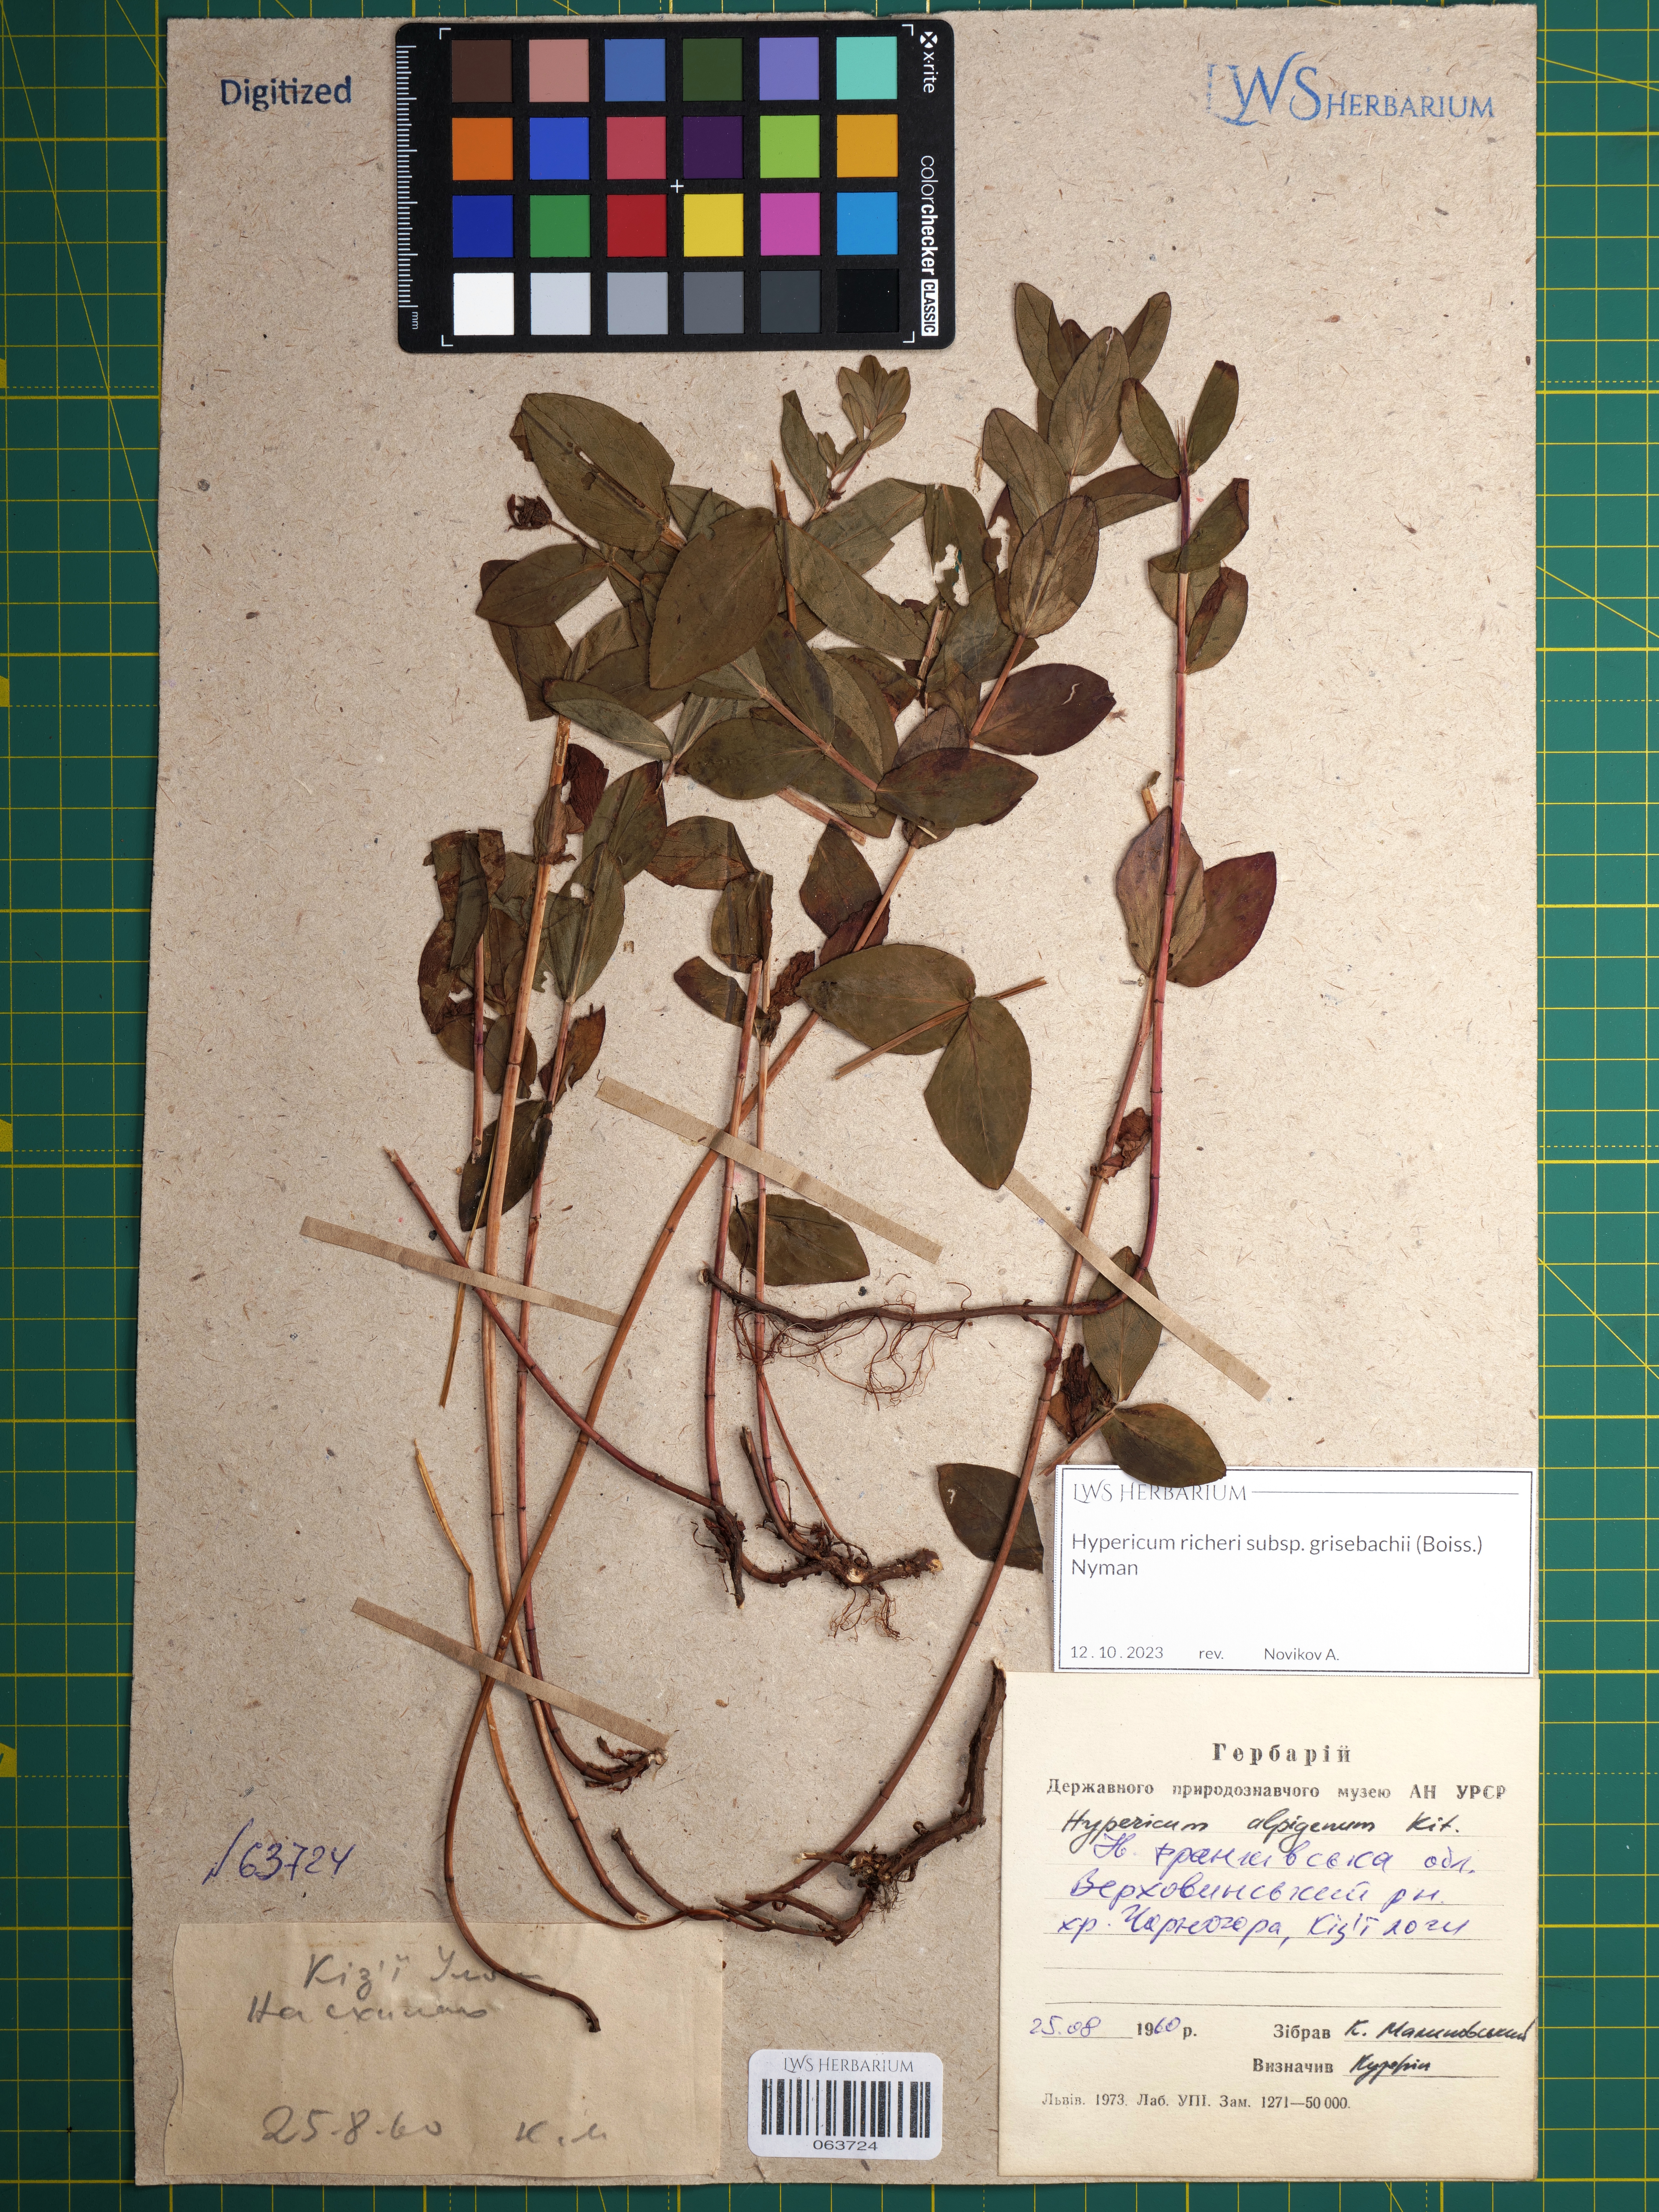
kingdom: Plantae
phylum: Tracheophyta
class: Magnoliopsida
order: Malpighiales
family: Hypericaceae
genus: Hypericum
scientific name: Hypericum richeri
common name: Alpine st john's-wort
